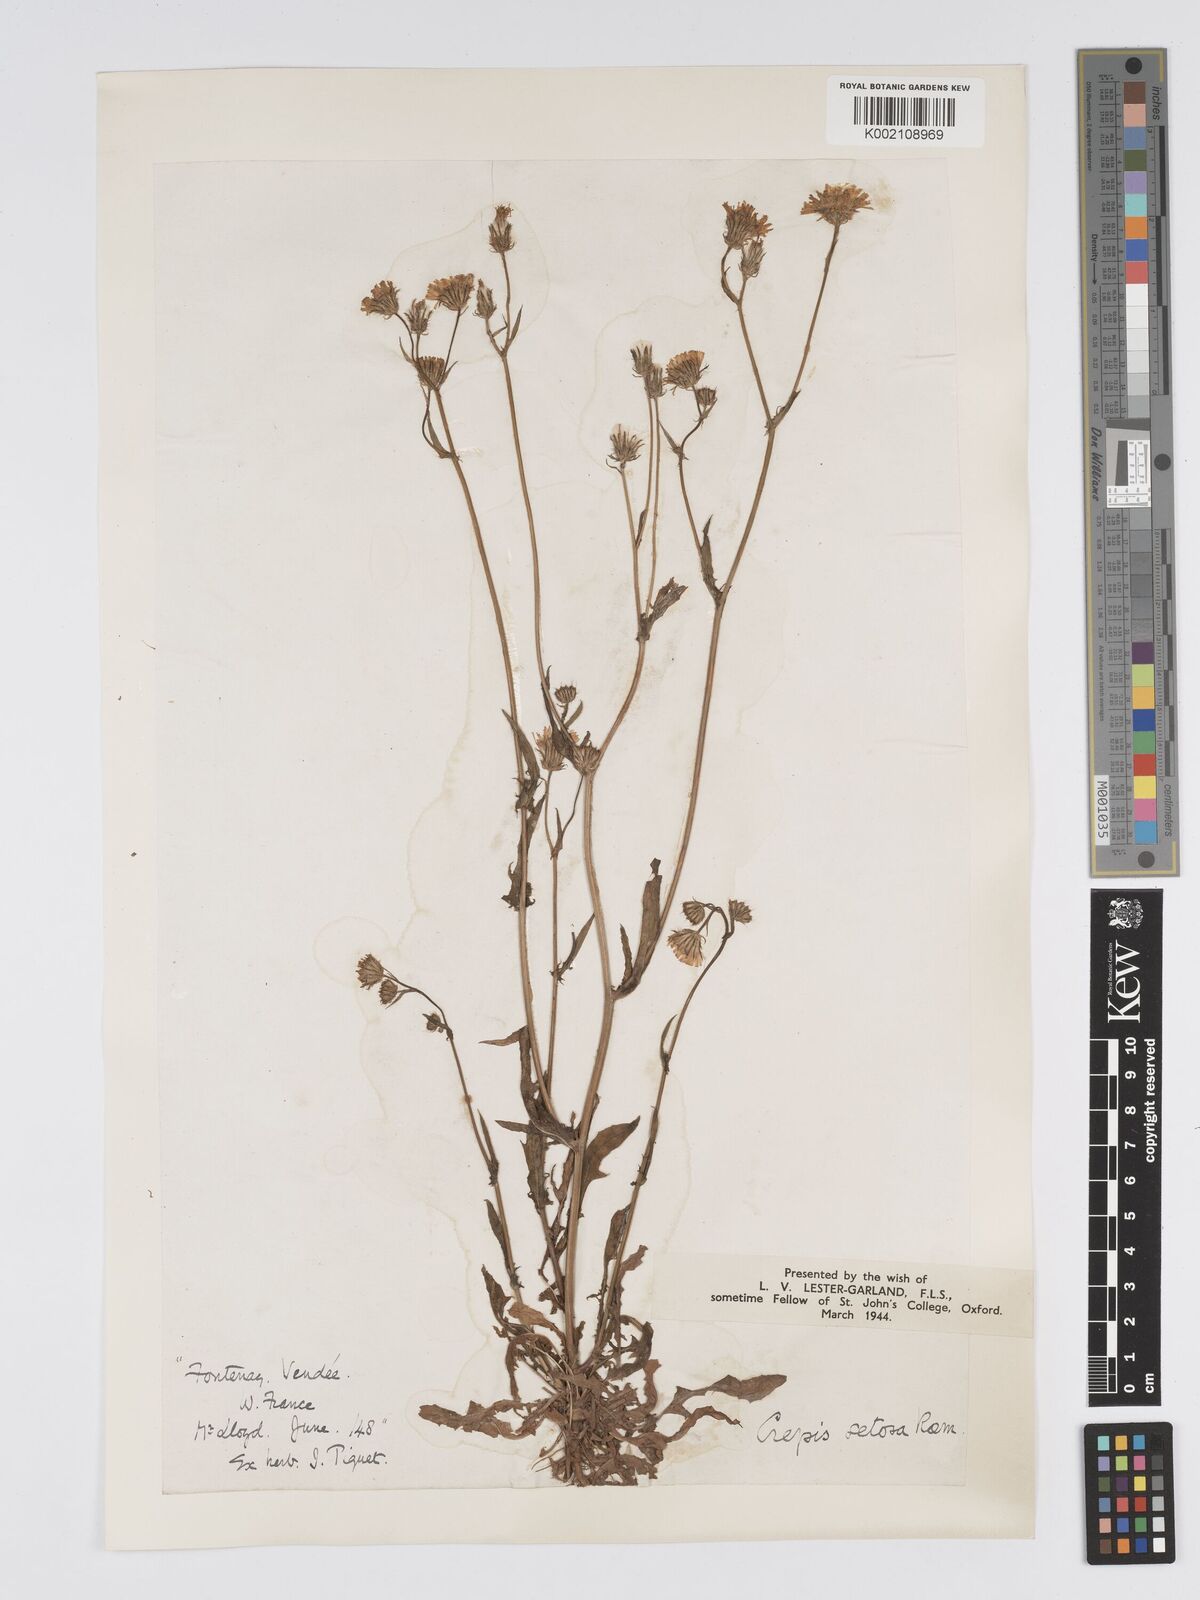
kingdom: Plantae
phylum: Tracheophyta
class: Magnoliopsida
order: Asterales
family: Asteraceae
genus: Crepis
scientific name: Crepis setosa
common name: Bristly hawk's-beard
